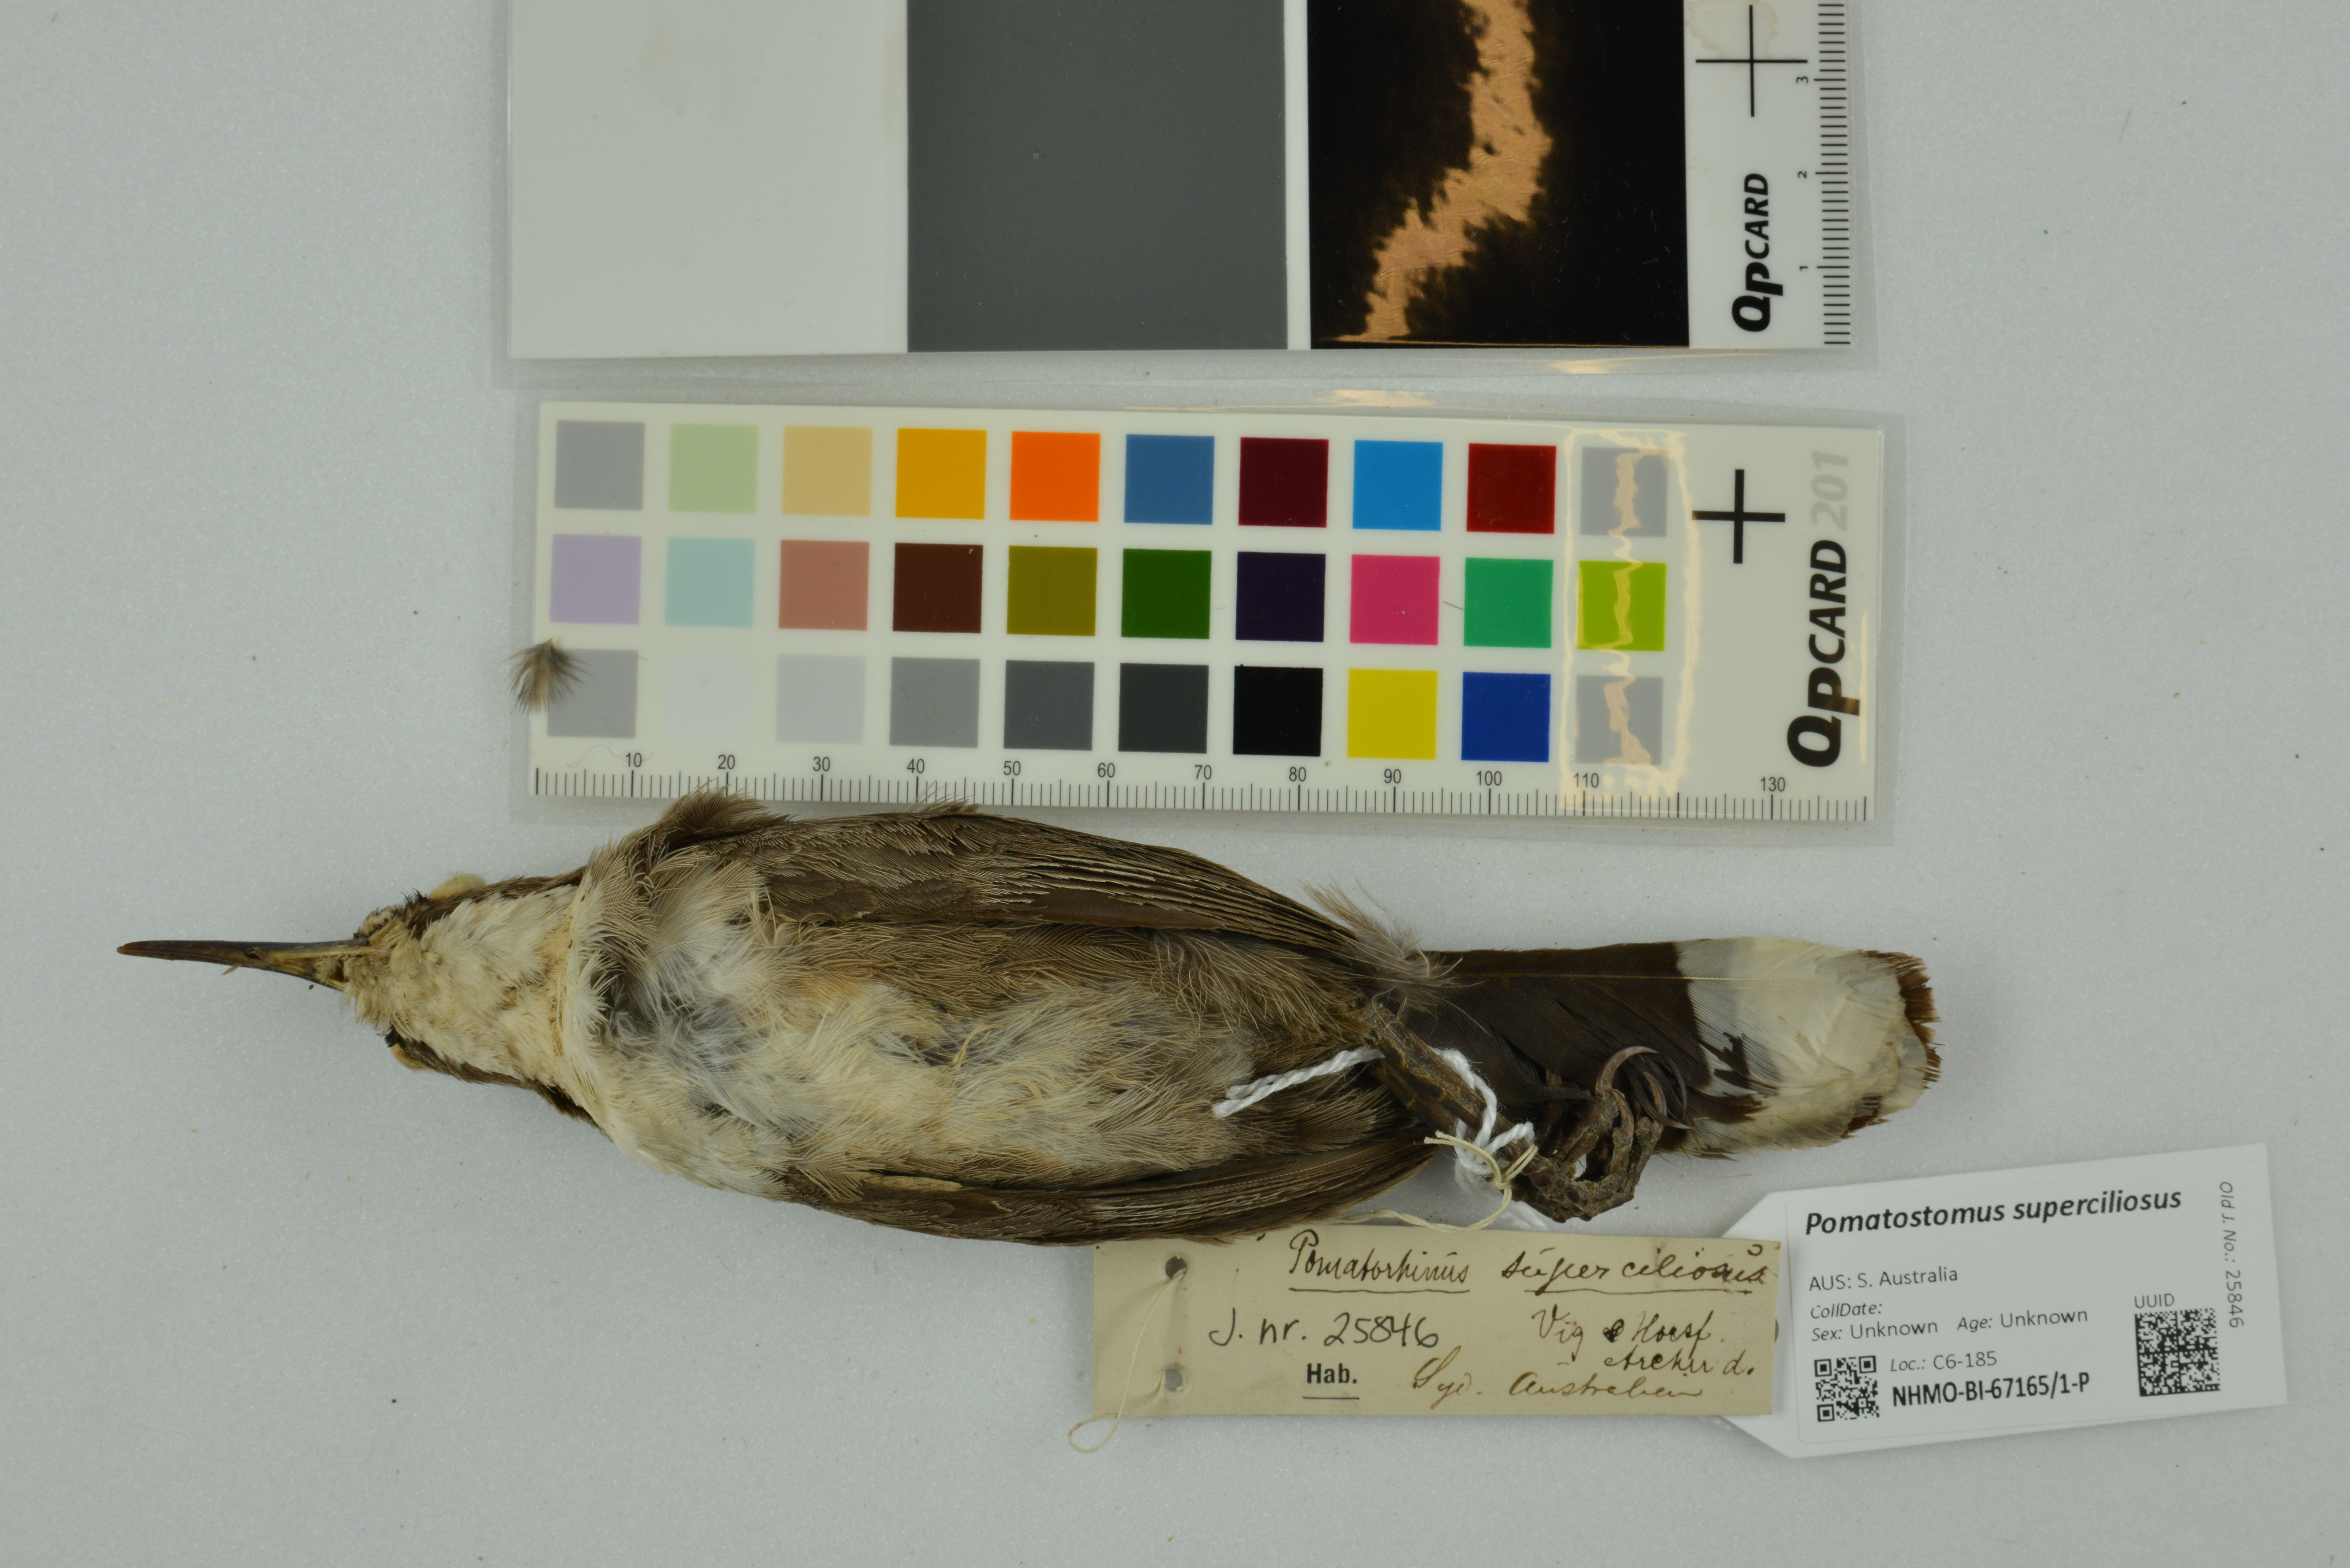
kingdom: Animalia
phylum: Chordata
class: Aves
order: Passeriformes
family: Pomatostomidae
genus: Pomatostomus
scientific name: Pomatostomus superciliosus
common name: White-browed babbler
